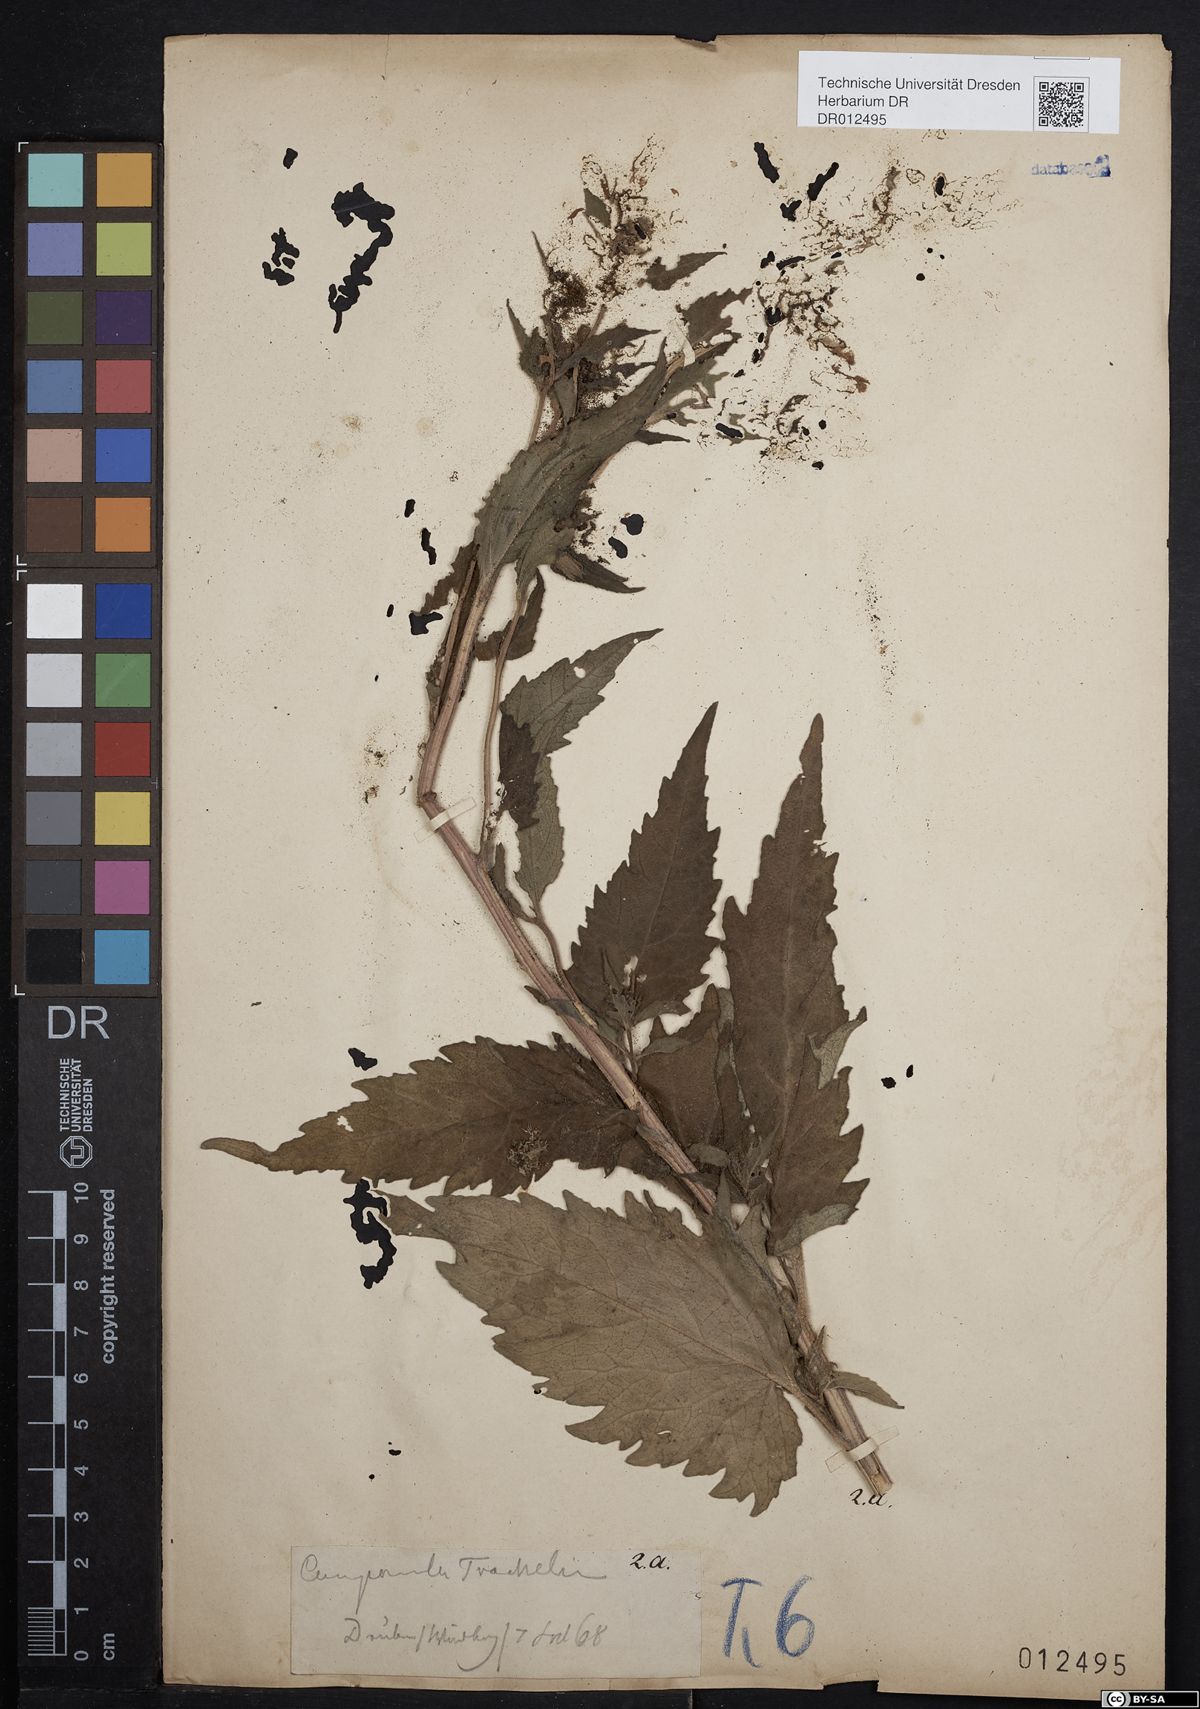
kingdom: Plantae
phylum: Tracheophyta
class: Magnoliopsida
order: Asterales
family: Campanulaceae
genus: Campanula
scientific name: Campanula trachelium
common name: Nettle-leaved bellflower
